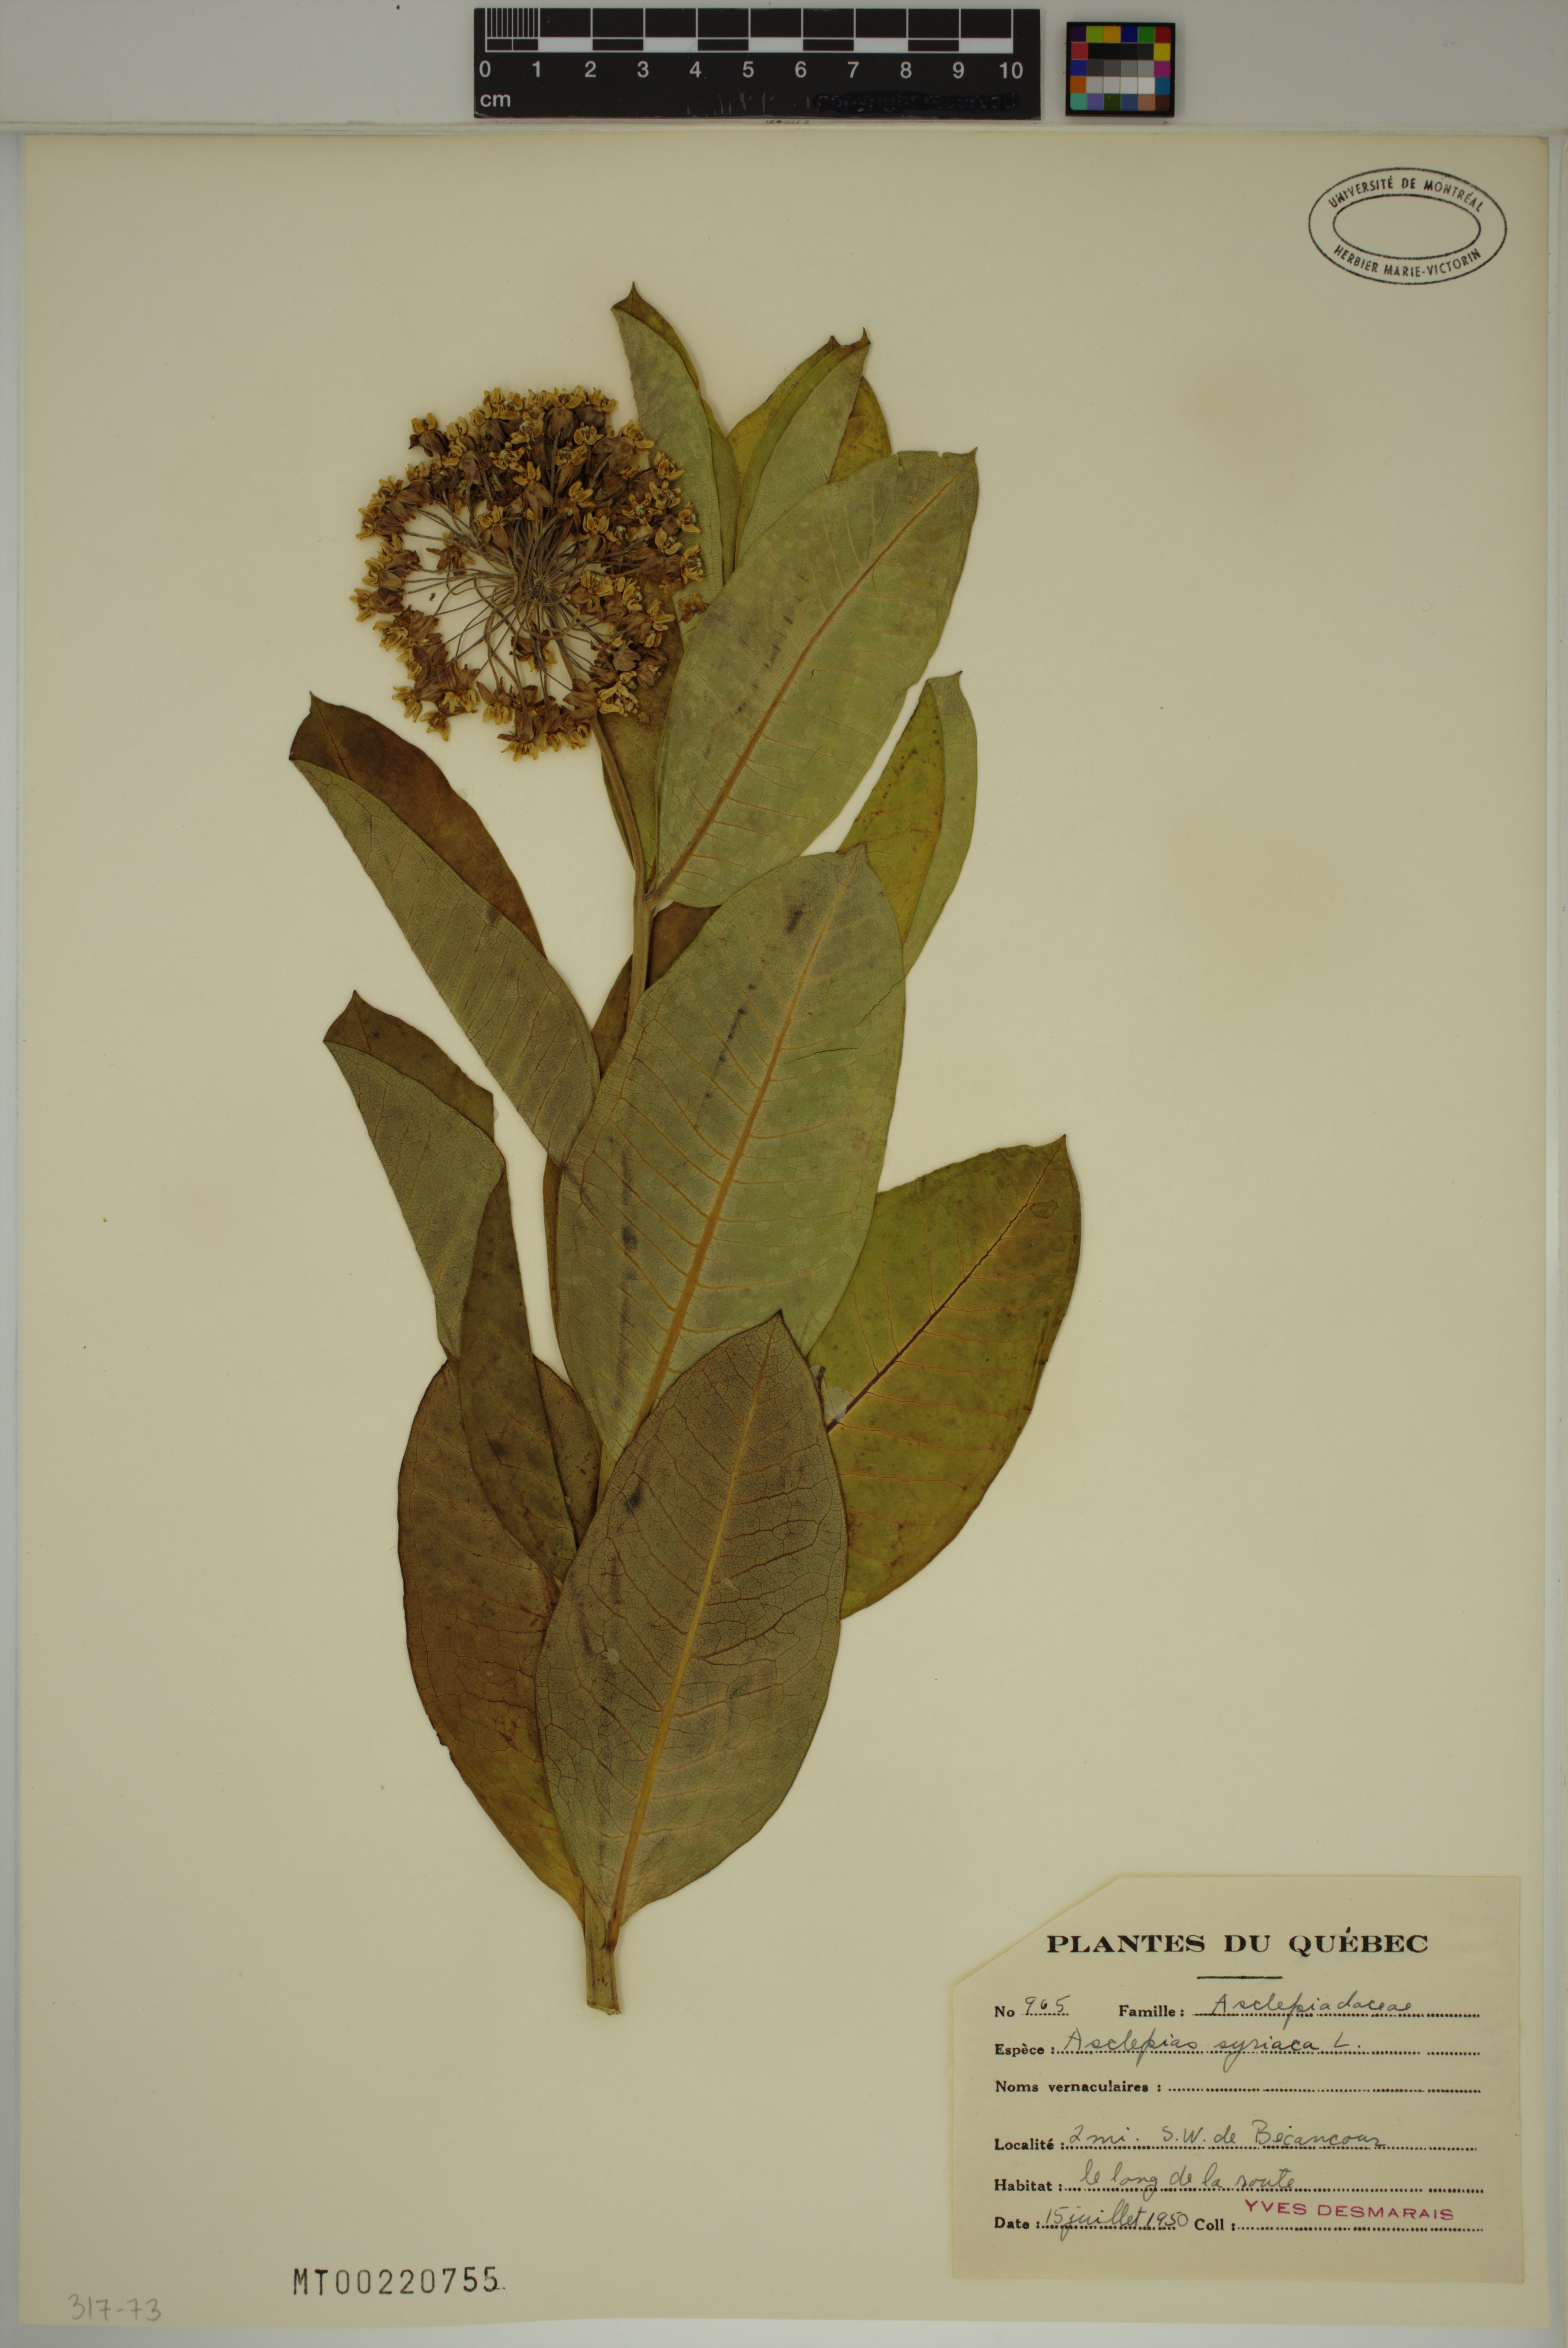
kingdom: Plantae
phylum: Tracheophyta
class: Magnoliopsida
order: Gentianales
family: Apocynaceae
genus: Asclepias
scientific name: Asclepias syriaca
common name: Common milkweed
